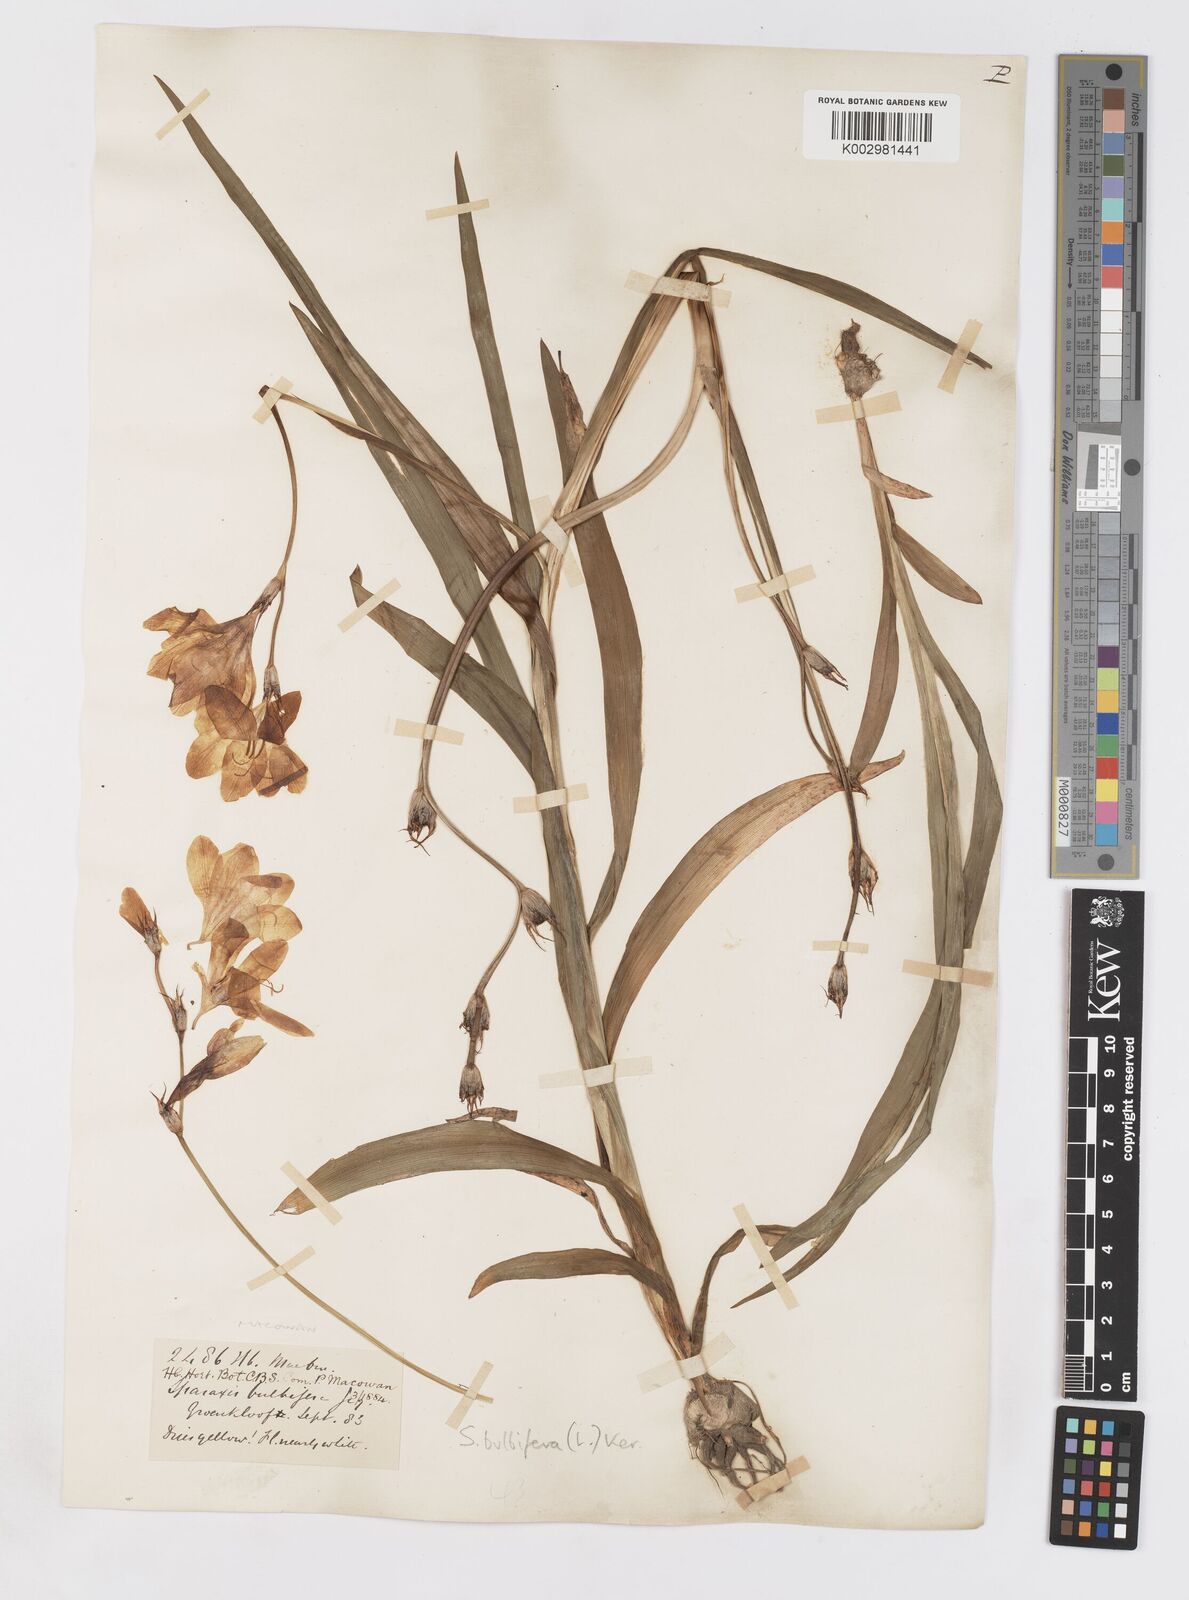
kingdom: Plantae
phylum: Tracheophyta
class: Liliopsida
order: Asparagales
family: Iridaceae
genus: Sparaxis
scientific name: Sparaxis bulbifera
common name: Harlequin-flower
